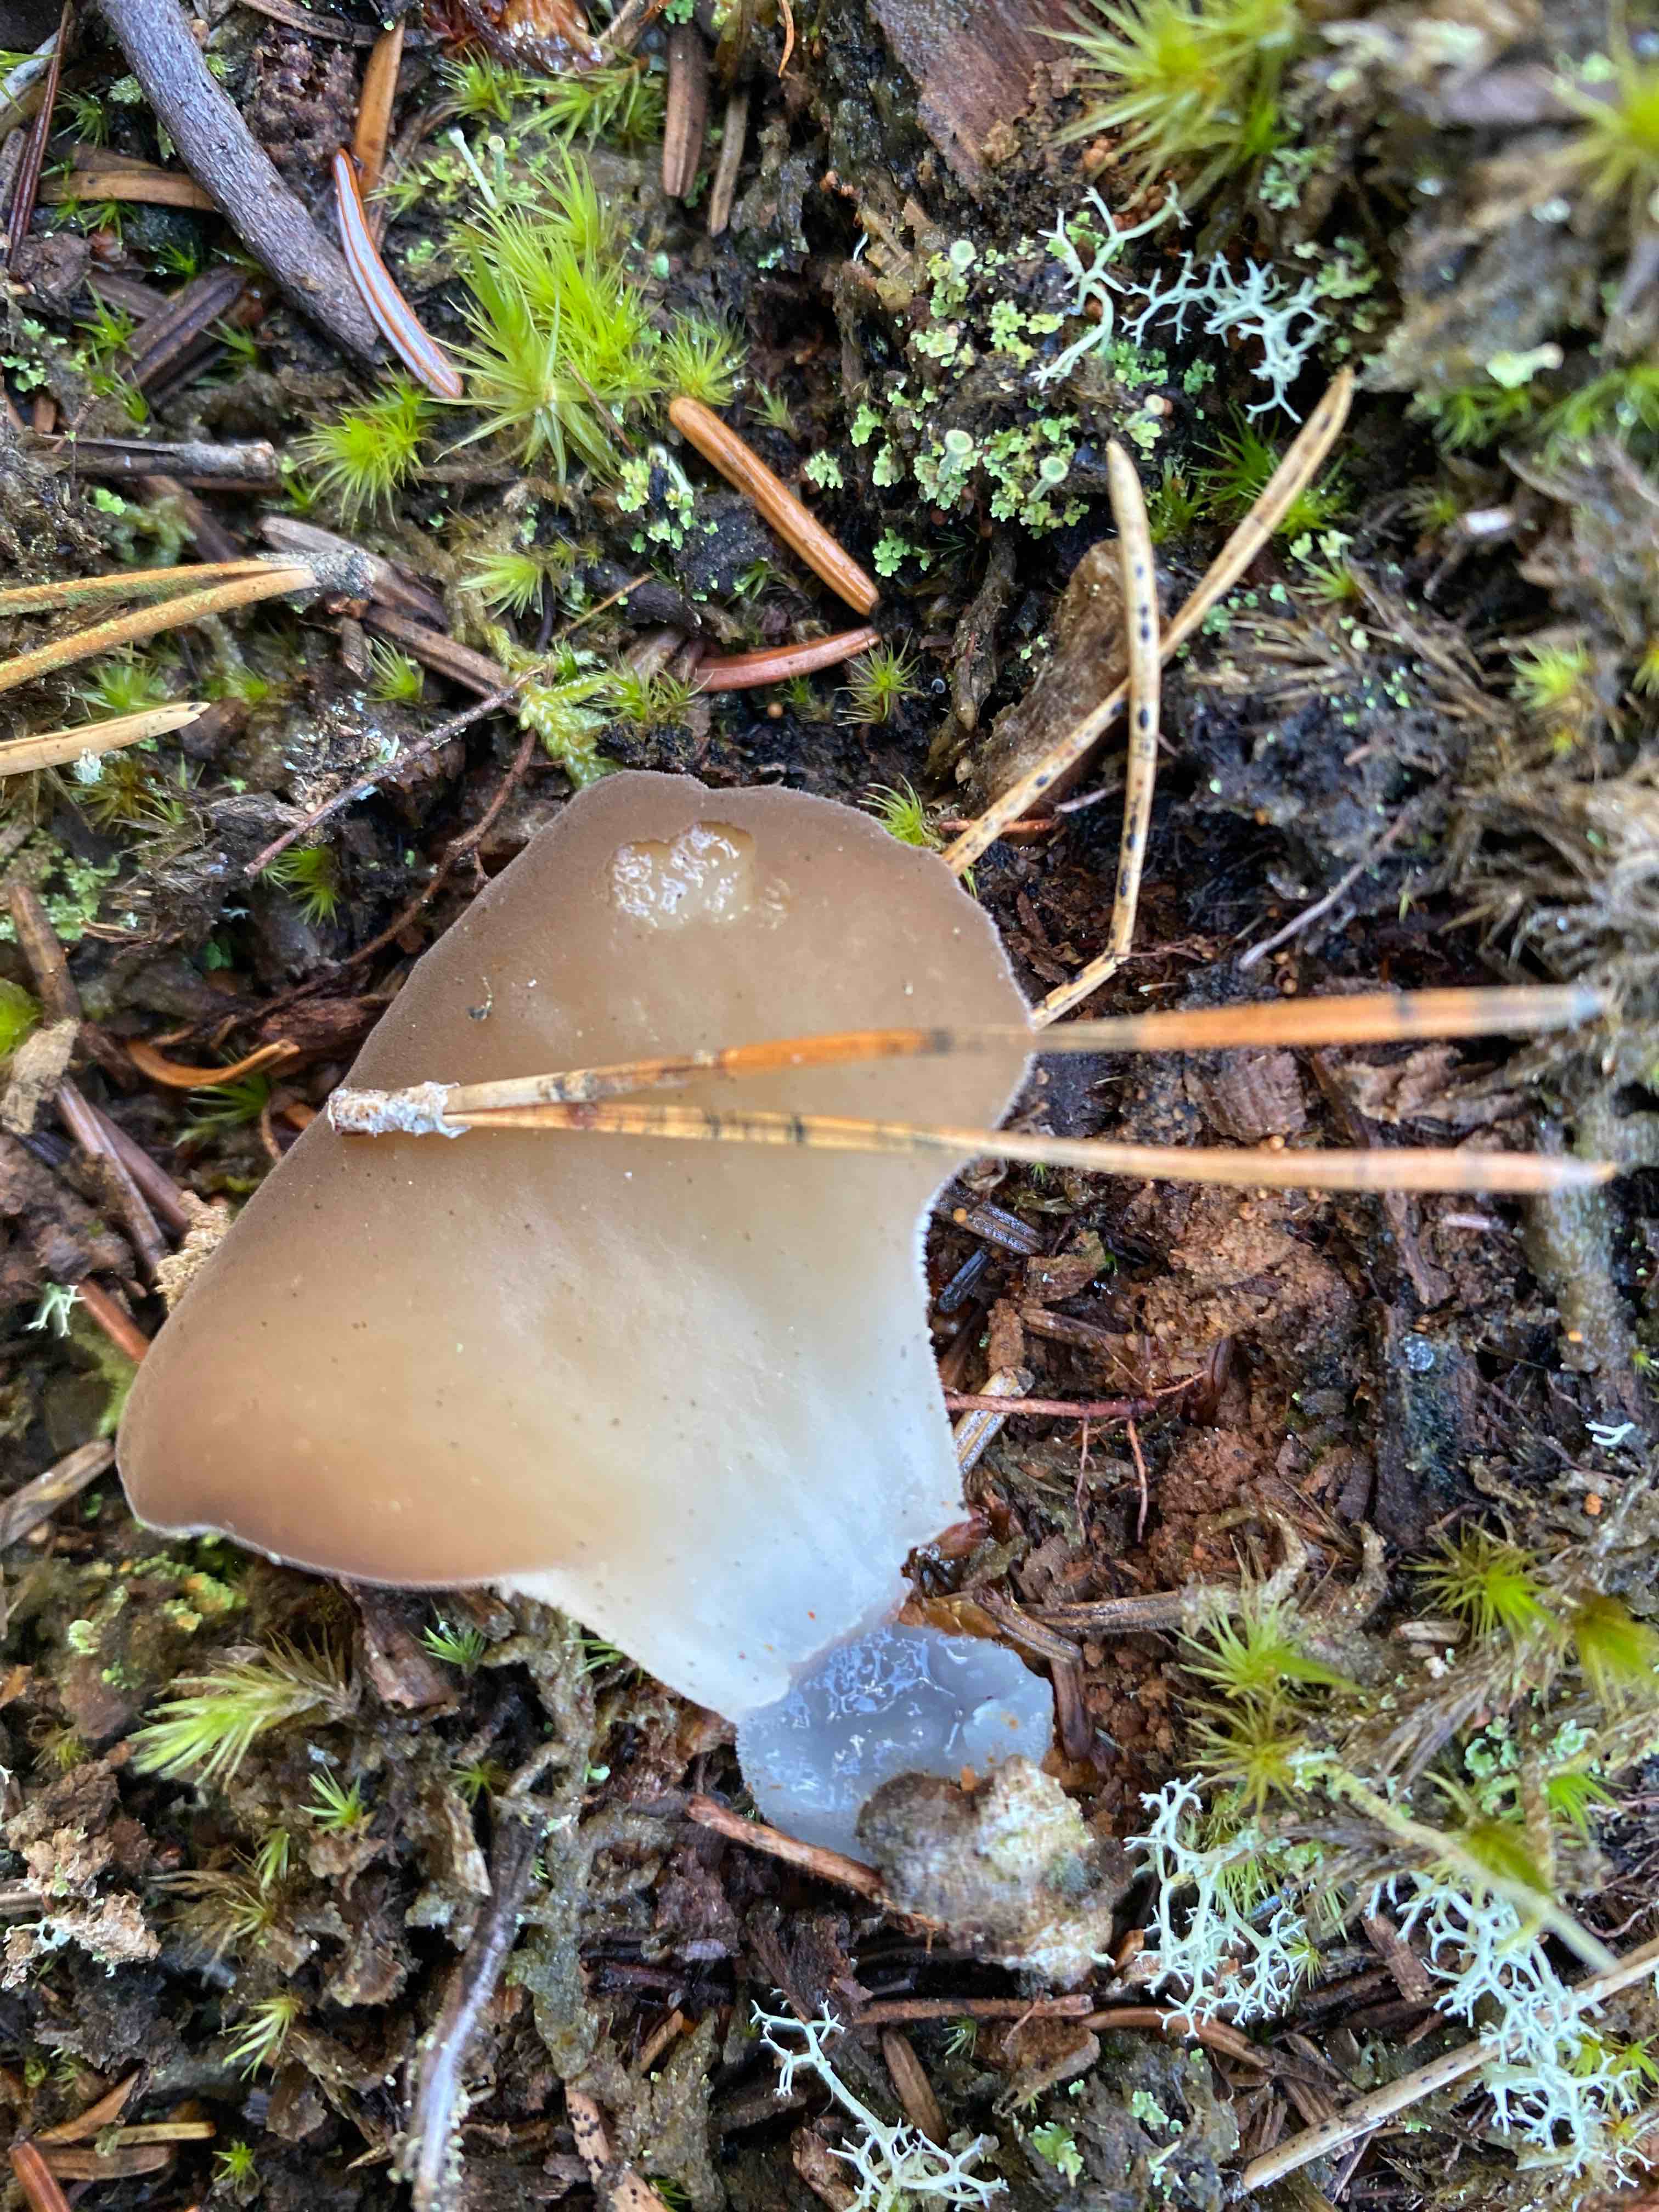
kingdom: Fungi
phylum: Basidiomycota
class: Agaricomycetes
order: Auriculariales
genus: Pseudohydnum
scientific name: Pseudohydnum gelatinosum
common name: bævretand
